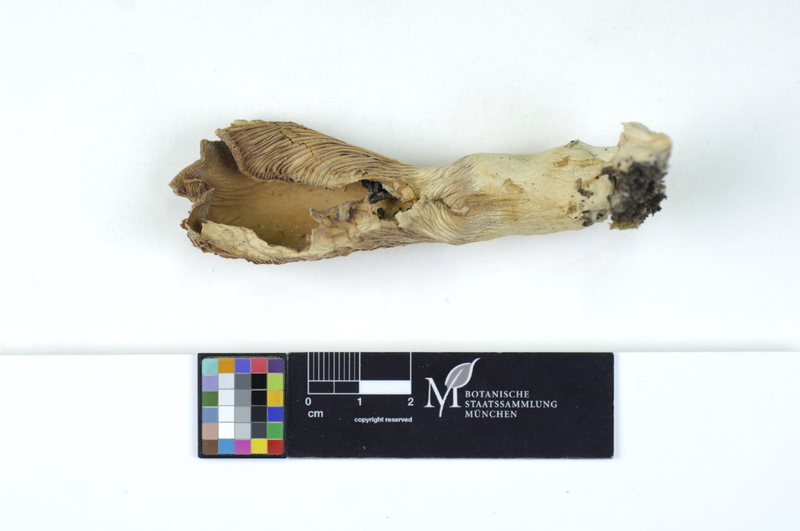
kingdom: Plantae
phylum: Tracheophyta
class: Magnoliopsida
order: Malpighiales
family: Salicaceae
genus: Populus
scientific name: Populus
